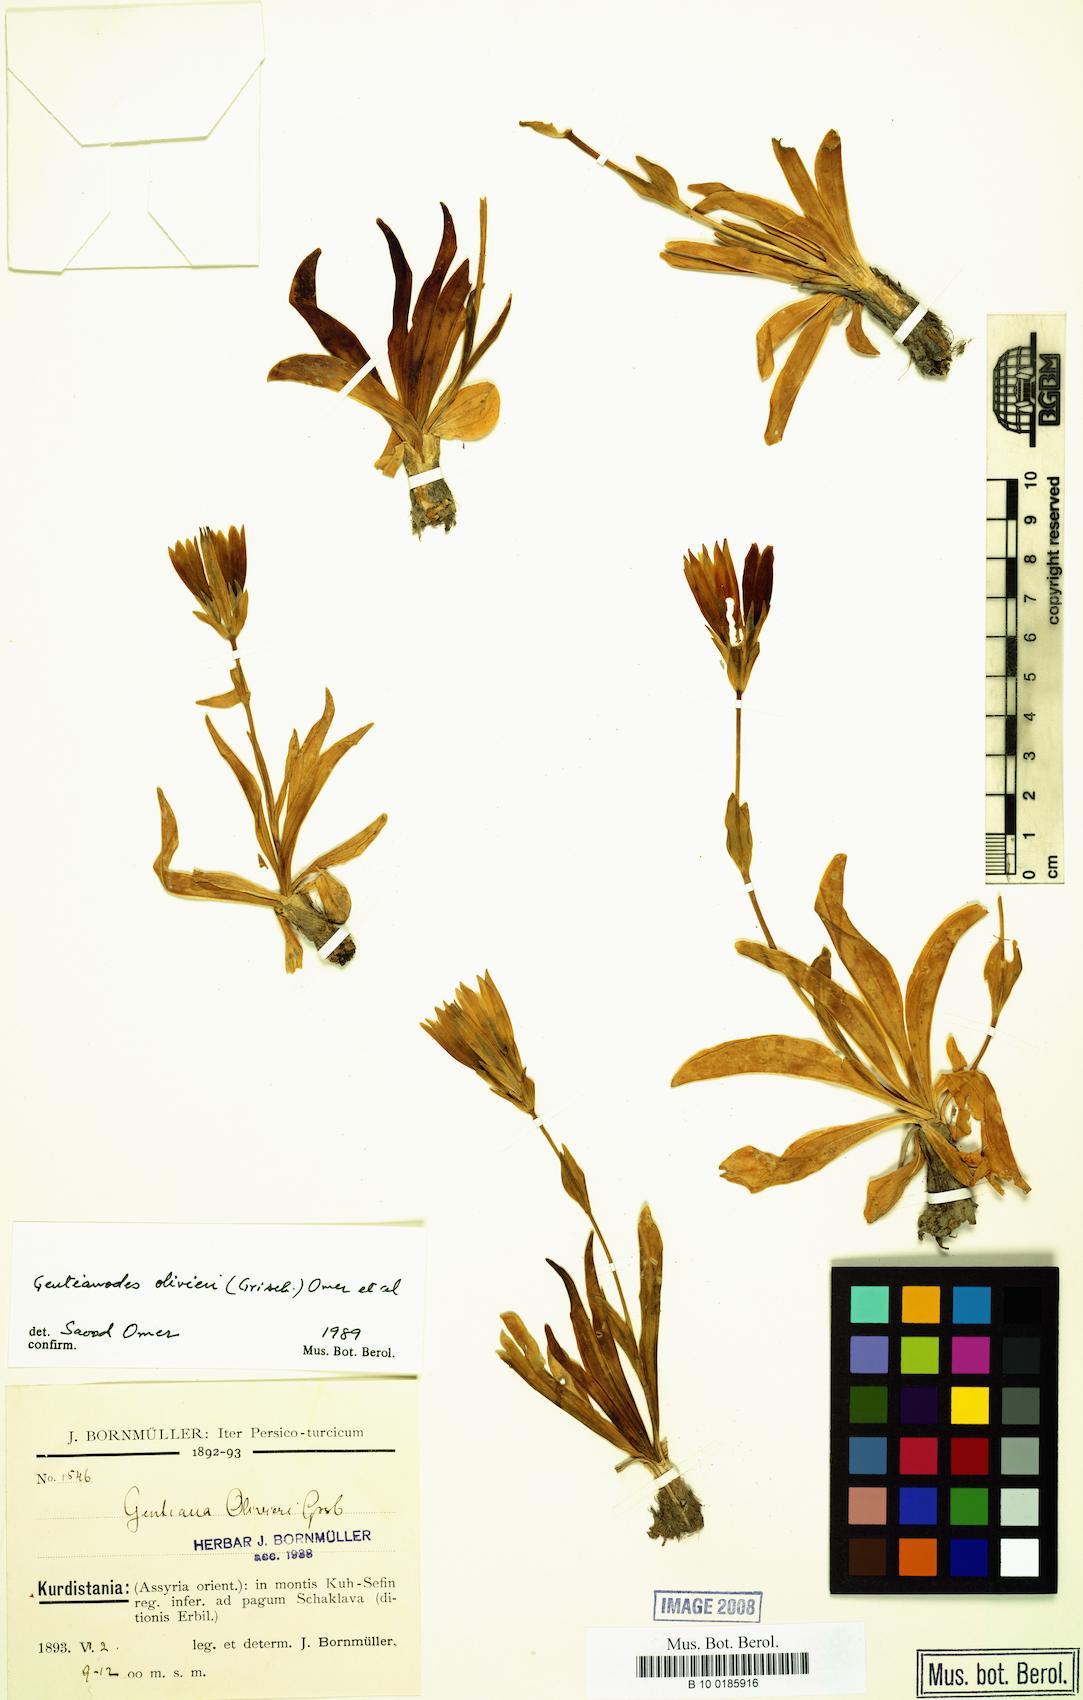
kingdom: Plantae
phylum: Tracheophyta
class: Magnoliopsida
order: Gentianales
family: Gentianaceae
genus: Gentiana
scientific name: Gentiana olivieri
